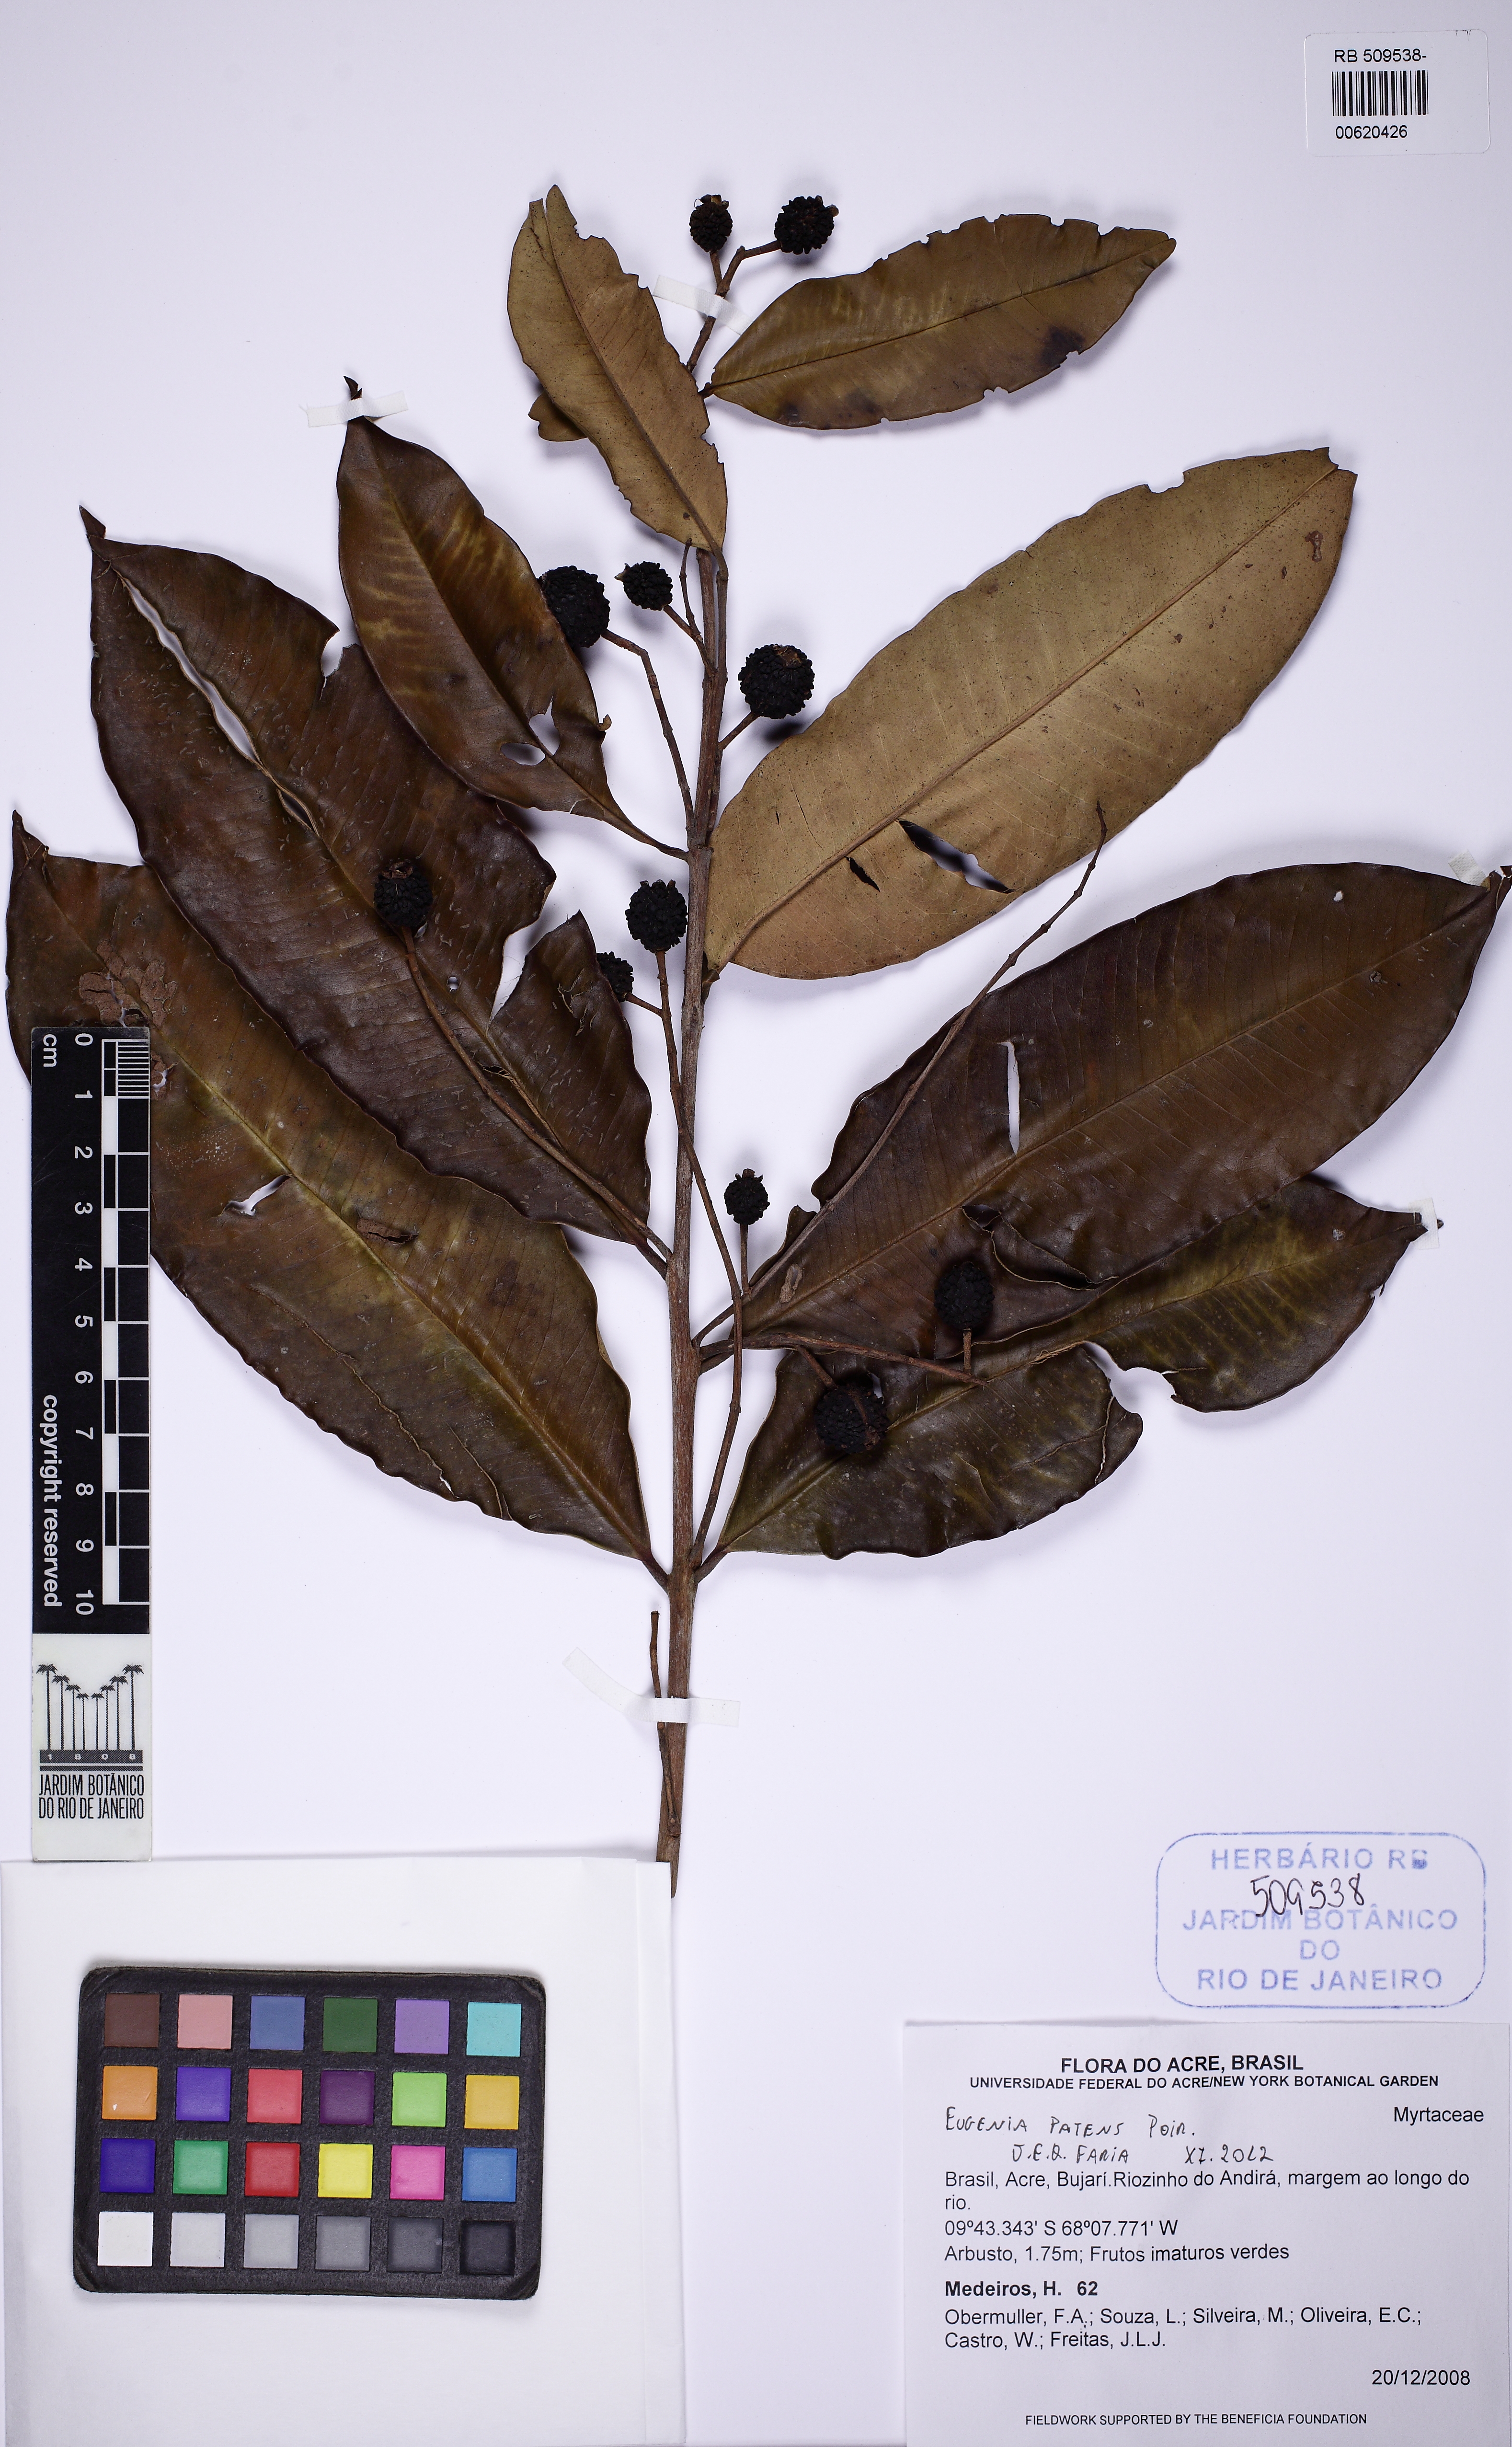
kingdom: Plantae
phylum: Tracheophyta
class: Magnoliopsida
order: Myrtales
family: Myrtaceae
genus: Eugenia
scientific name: Eugenia patens
